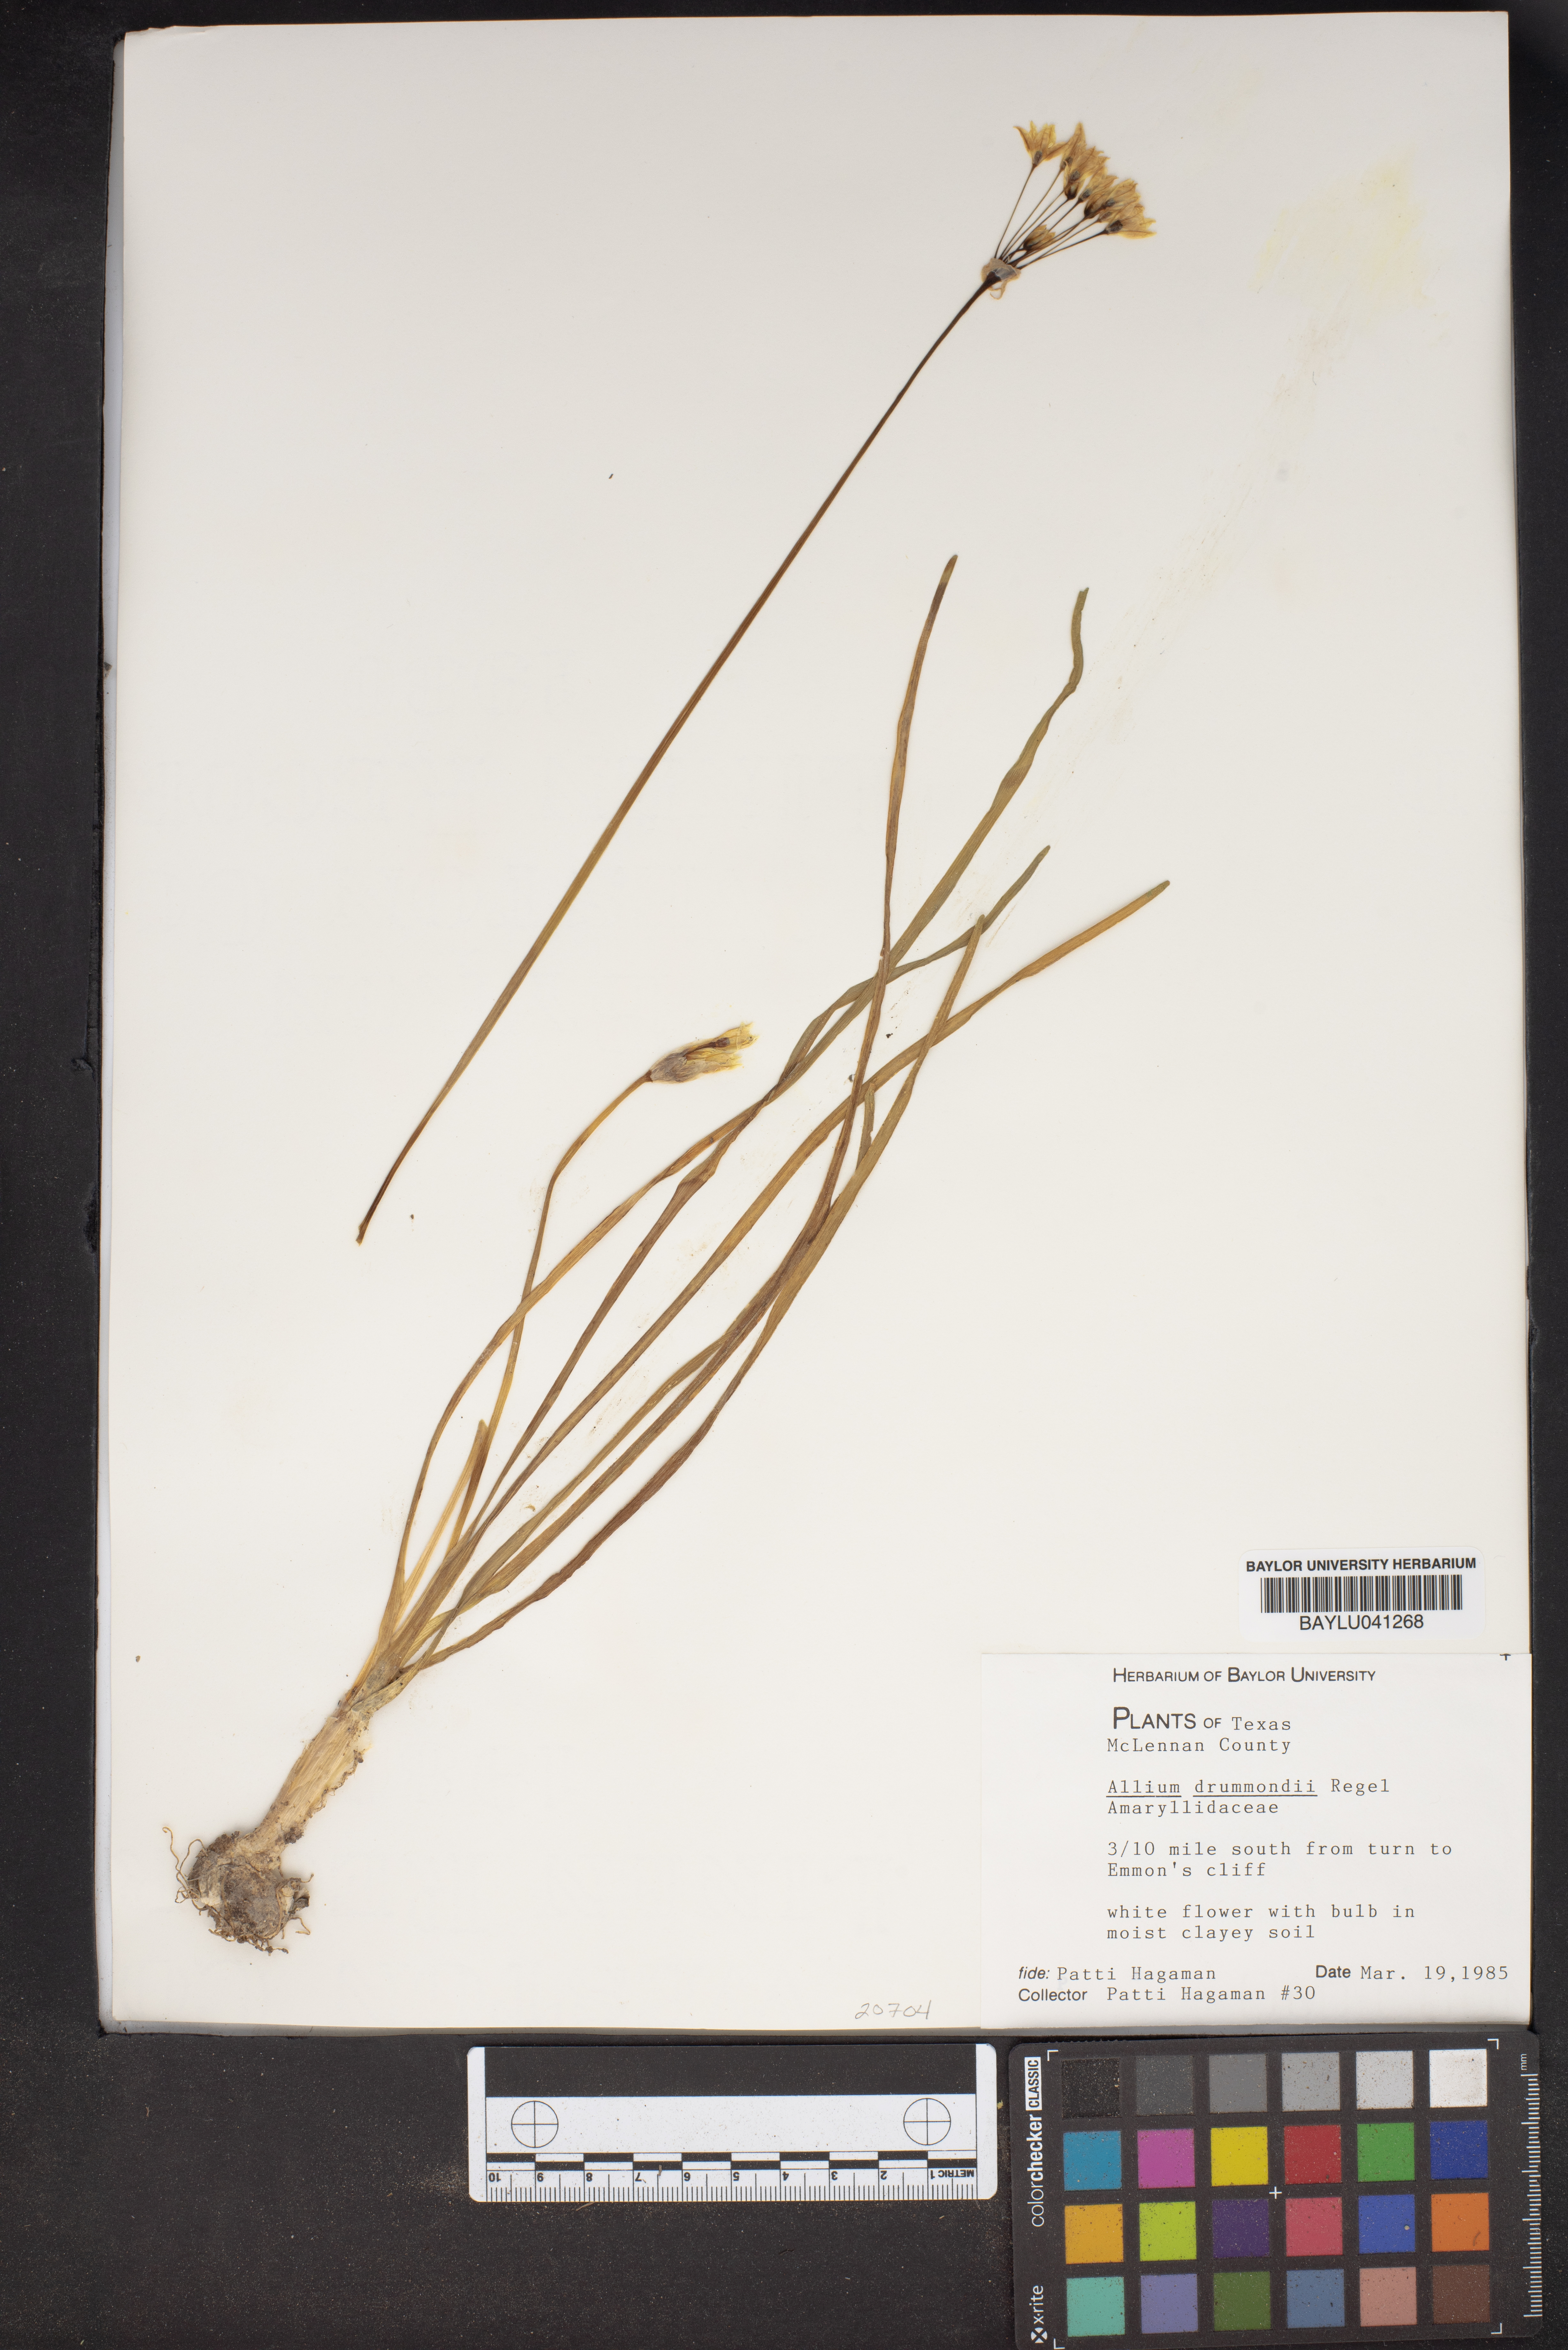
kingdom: Plantae
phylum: Tracheophyta
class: Liliopsida
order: Asparagales
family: Amaryllidaceae
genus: Allium
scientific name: Allium drummondii
